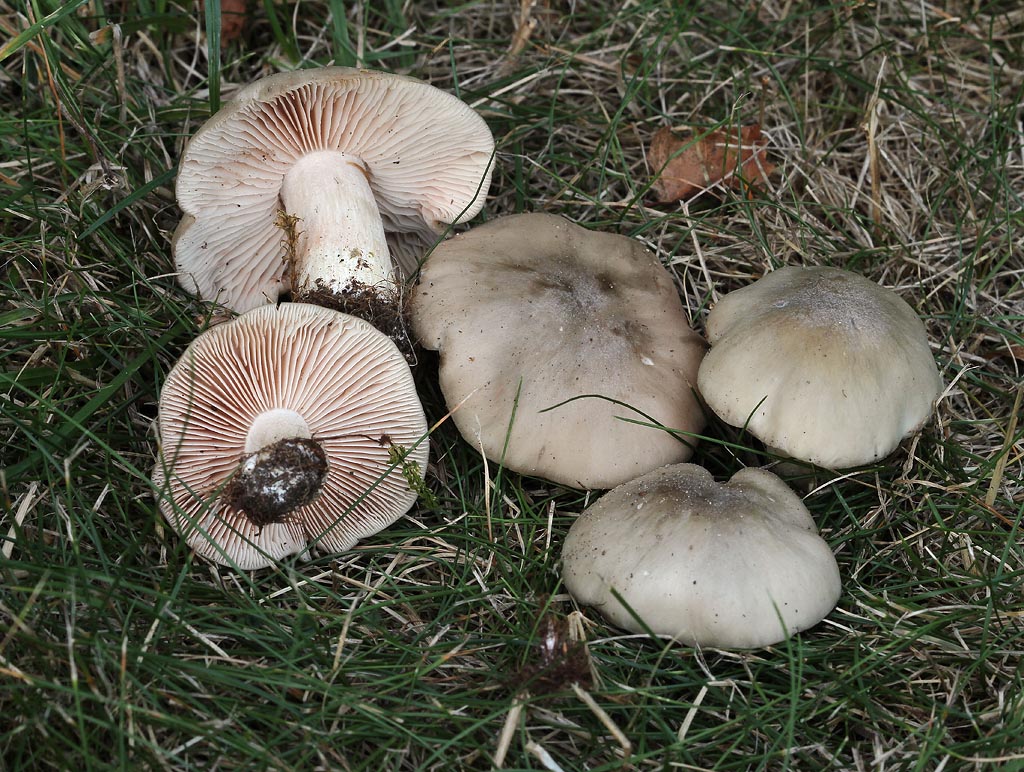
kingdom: Fungi
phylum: Basidiomycota
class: Agaricomycetes
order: Agaricales
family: Entolomataceae
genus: Entoloma
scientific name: Entoloma
